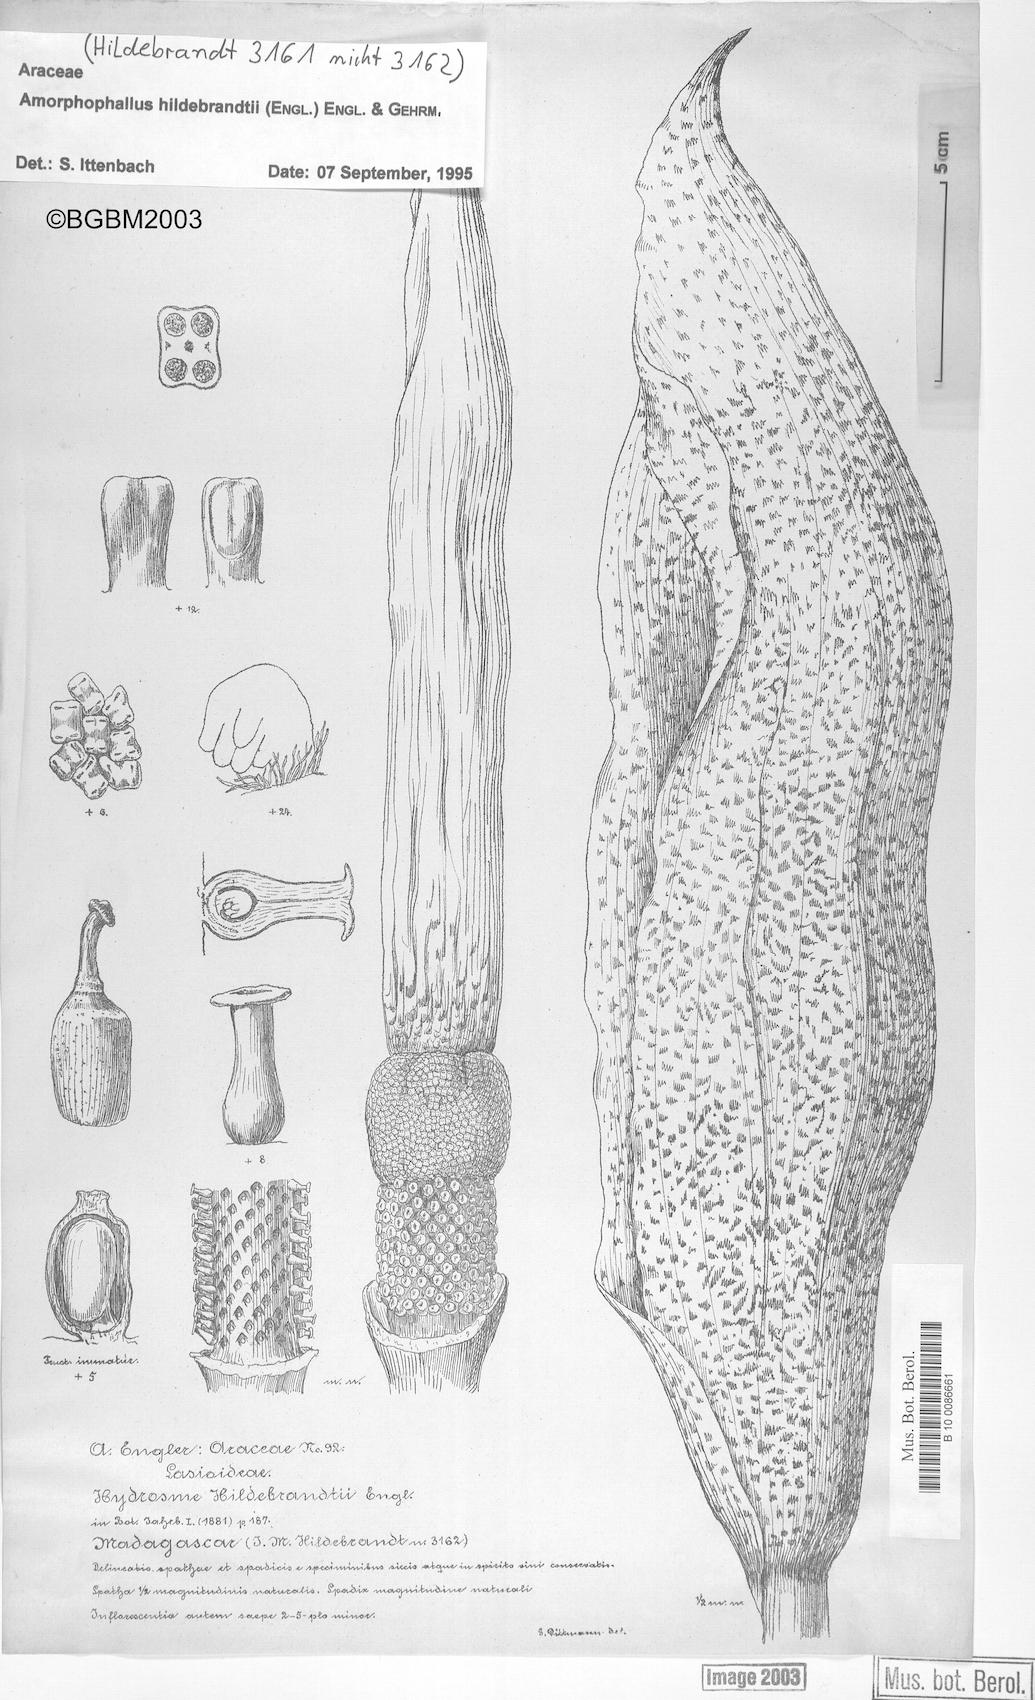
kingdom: Plantae
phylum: Tracheophyta
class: Liliopsida
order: Alismatales
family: Araceae
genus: Amorphophallus
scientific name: Amorphophallus hildebrandtii
